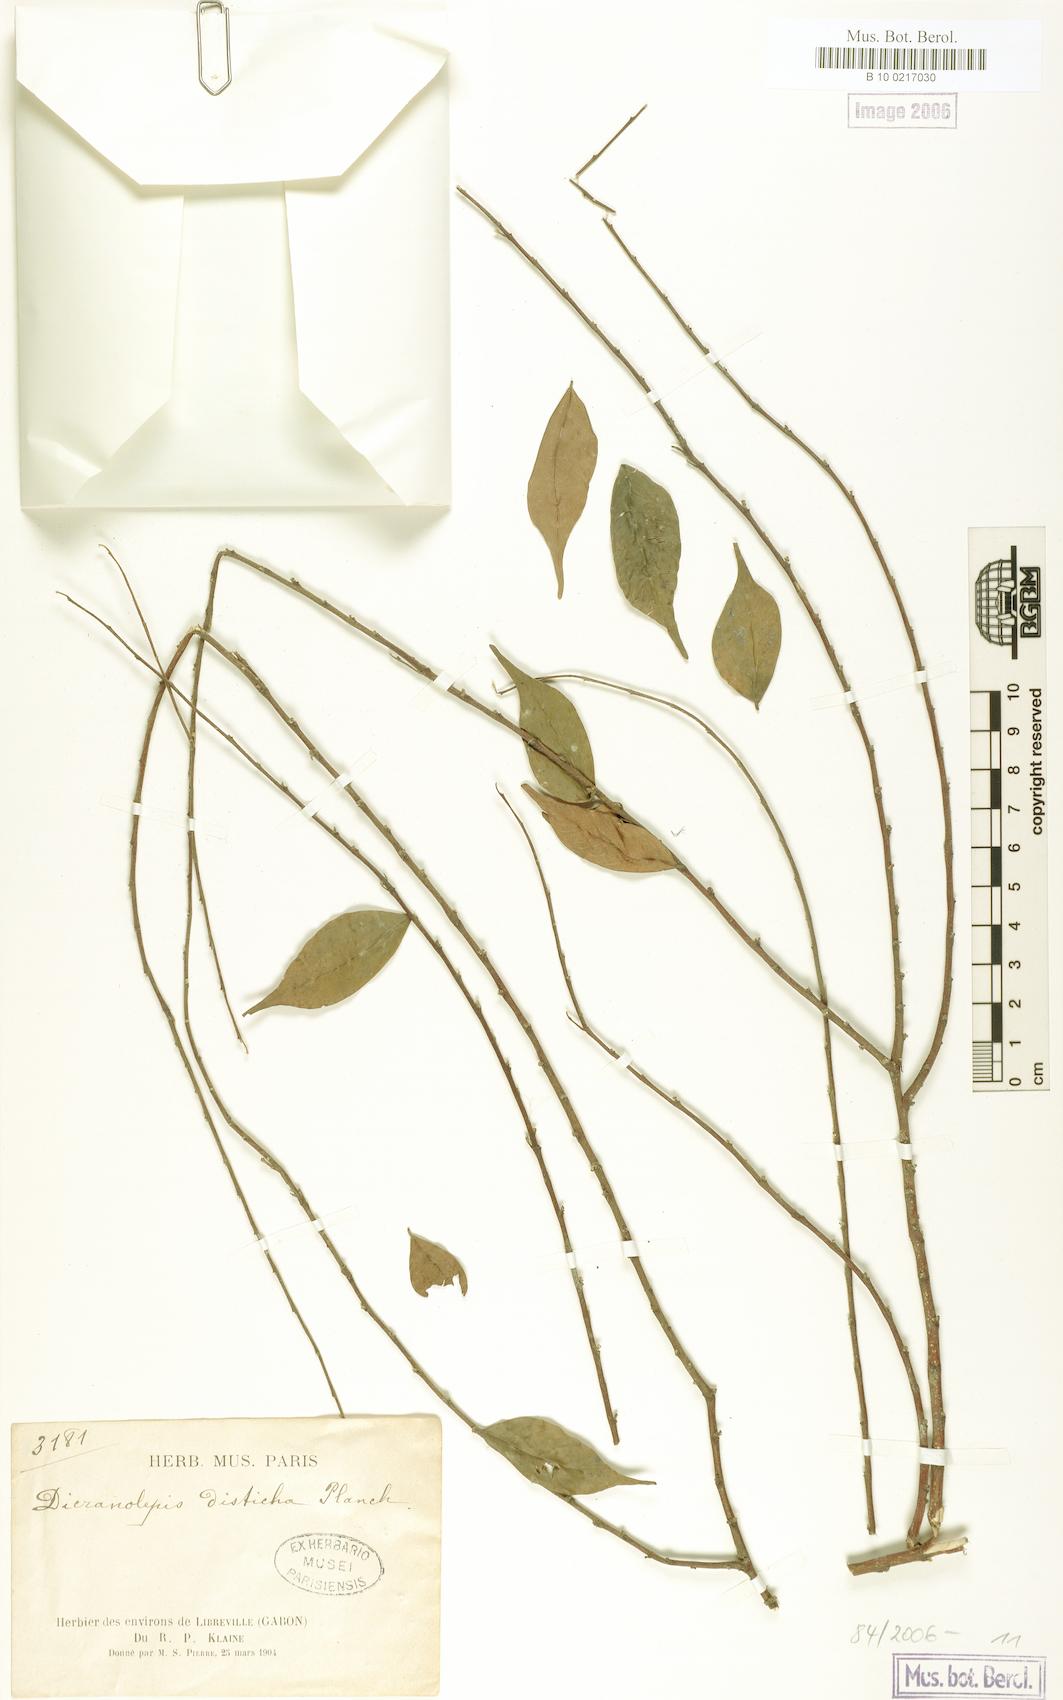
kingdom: Plantae
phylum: Tracheophyta
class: Magnoliopsida
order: Malvales
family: Thymelaeaceae
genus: Dicranolepis
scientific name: Dicranolepis buchholzii
